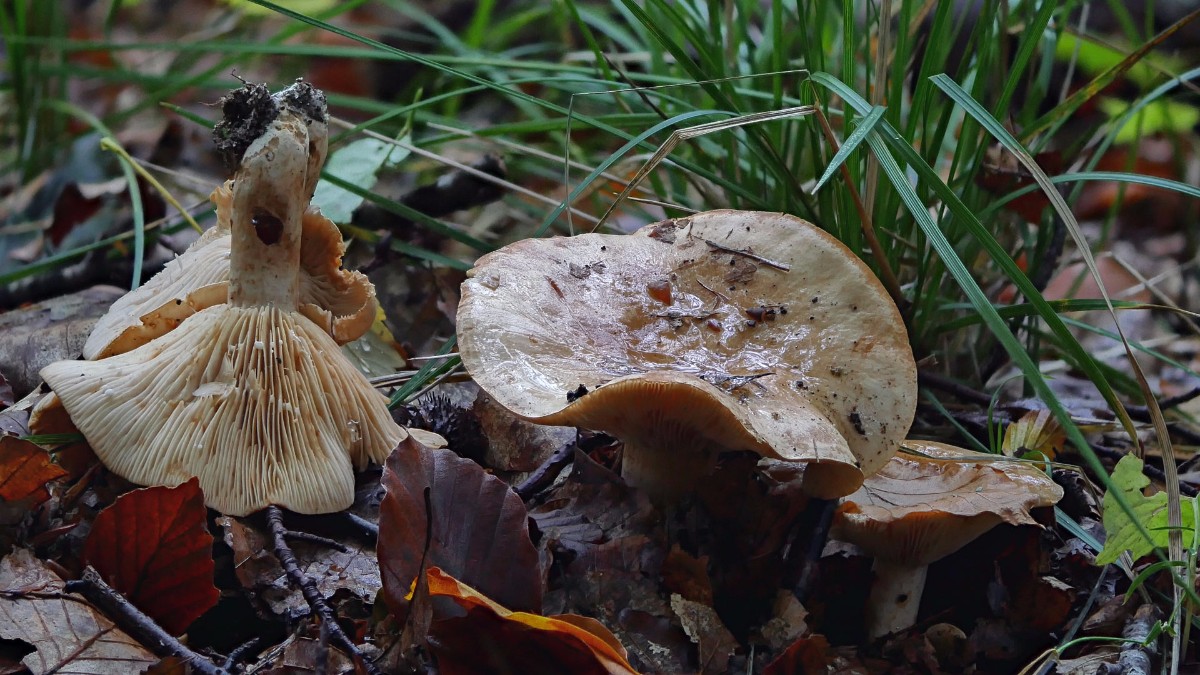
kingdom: Fungi
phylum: Basidiomycota
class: Agaricomycetes
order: Russulales
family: Russulaceae
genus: Lactarius
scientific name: Lactarius pallidus
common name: bleg mælkehat
